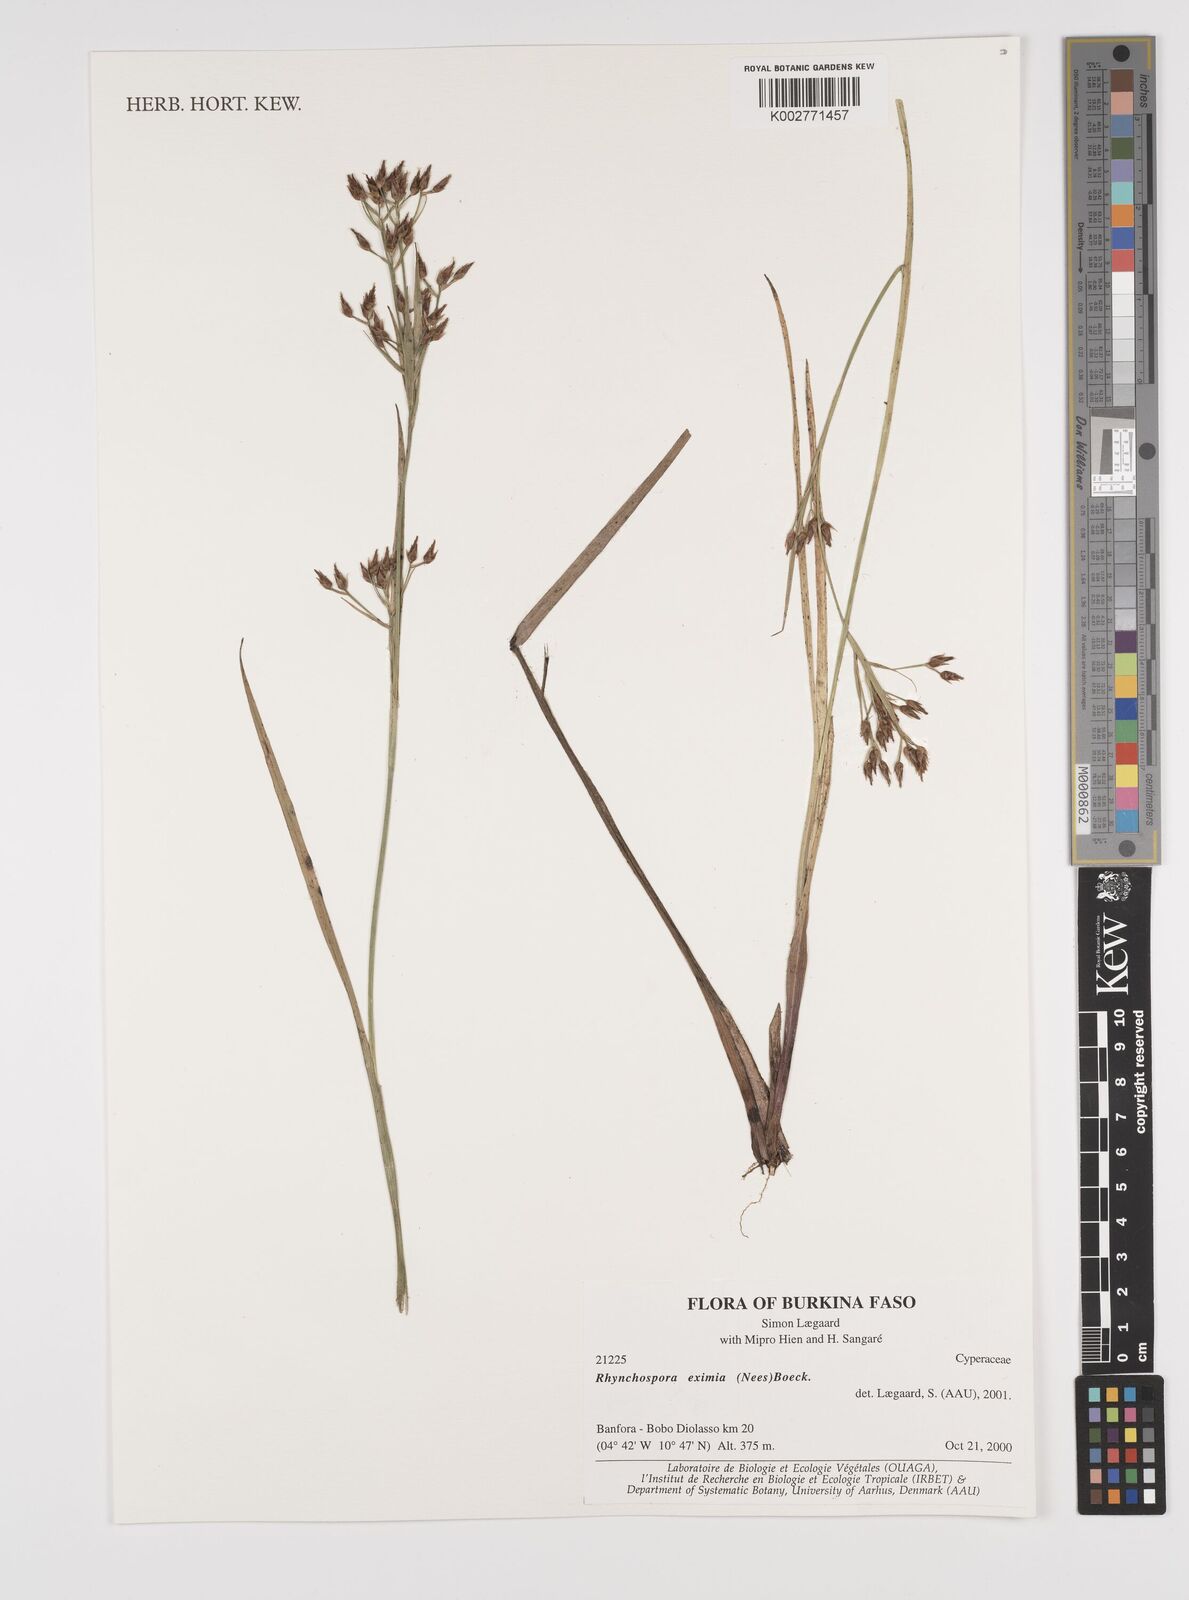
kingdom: Plantae
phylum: Tracheophyta
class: Liliopsida
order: Poales
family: Cyperaceae
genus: Rhynchospora
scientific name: Rhynchospora eximia
